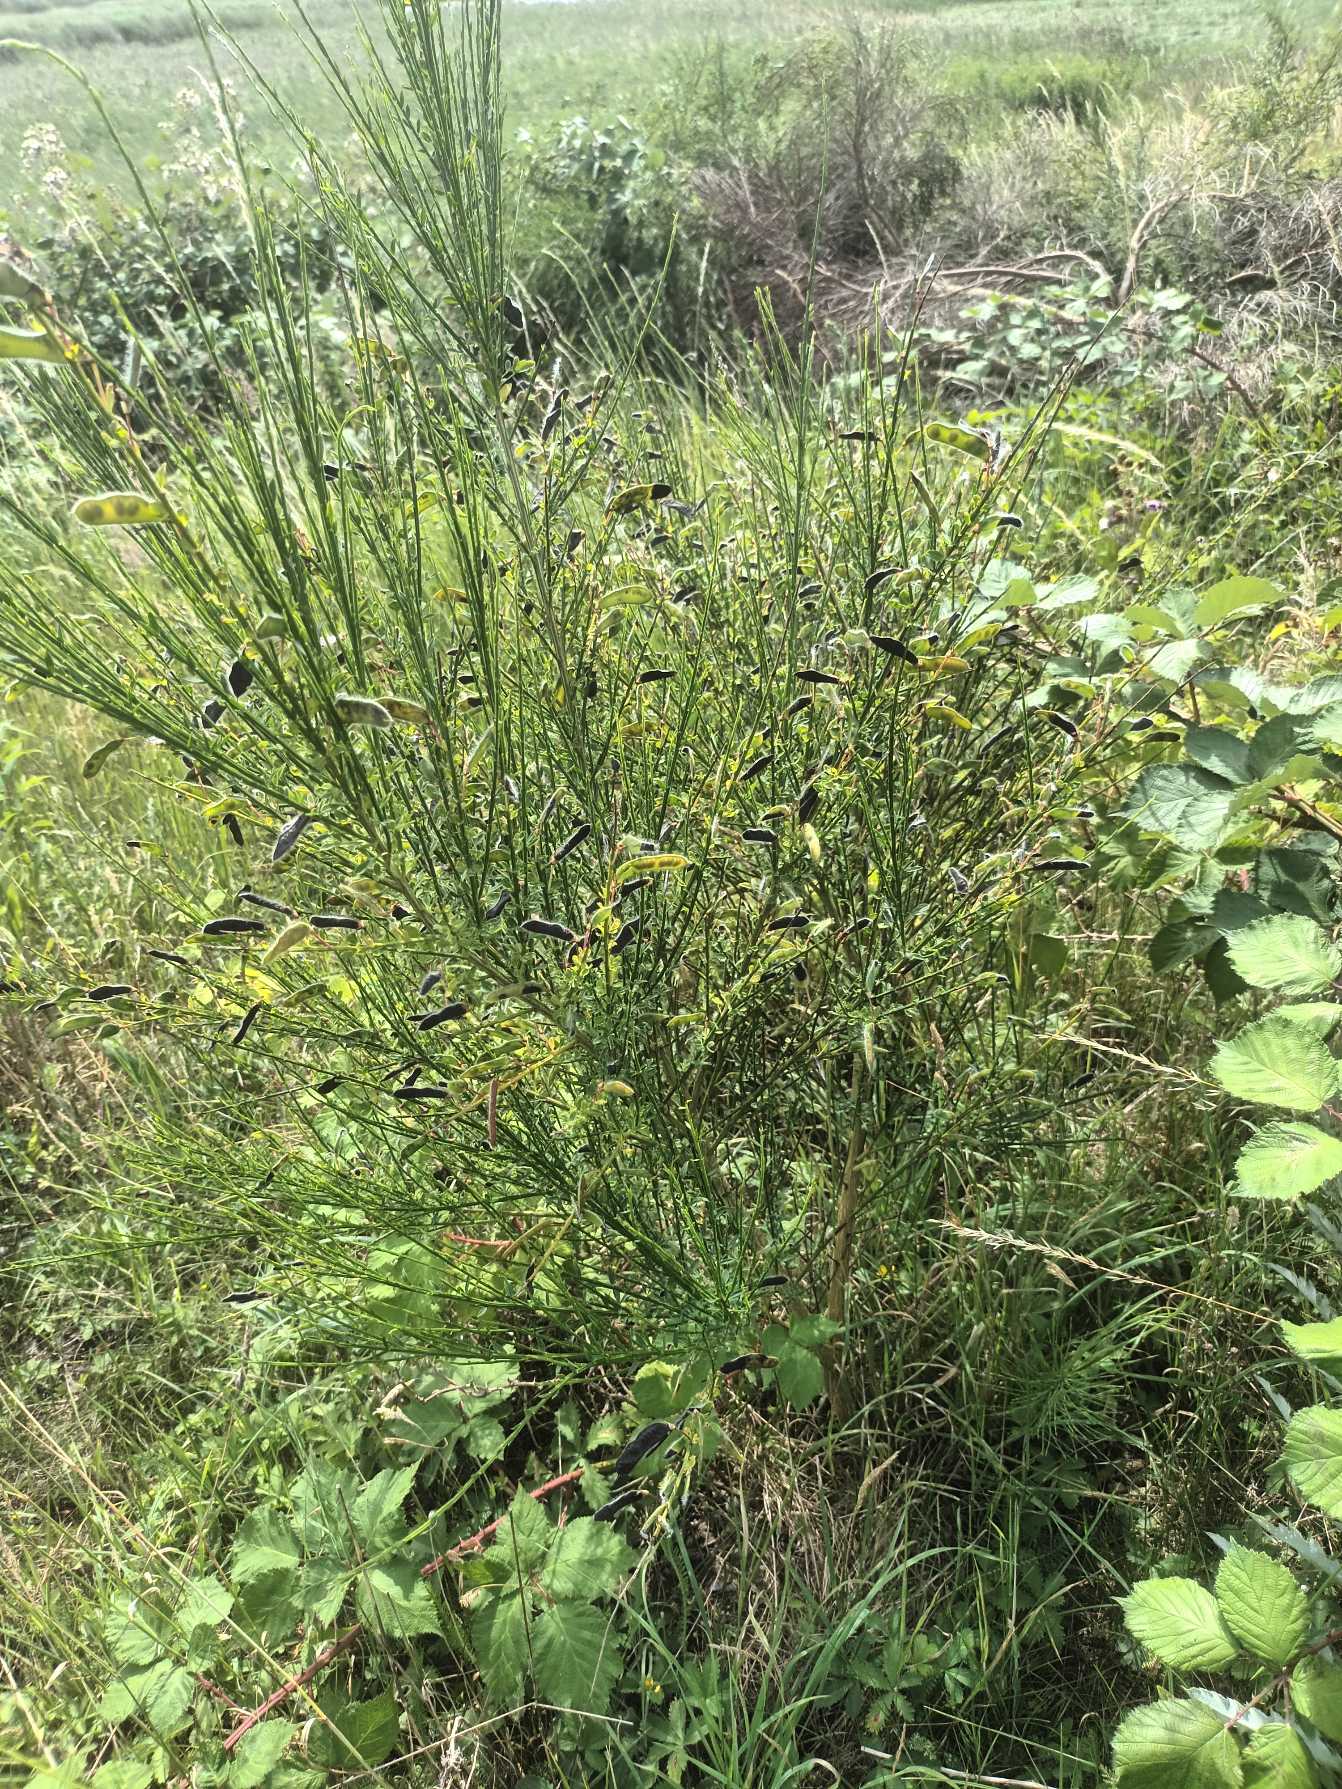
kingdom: Plantae
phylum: Tracheophyta
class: Magnoliopsida
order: Fabales
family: Fabaceae
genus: Cytisus
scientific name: Cytisus scoparius
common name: Almindelig gyvel
